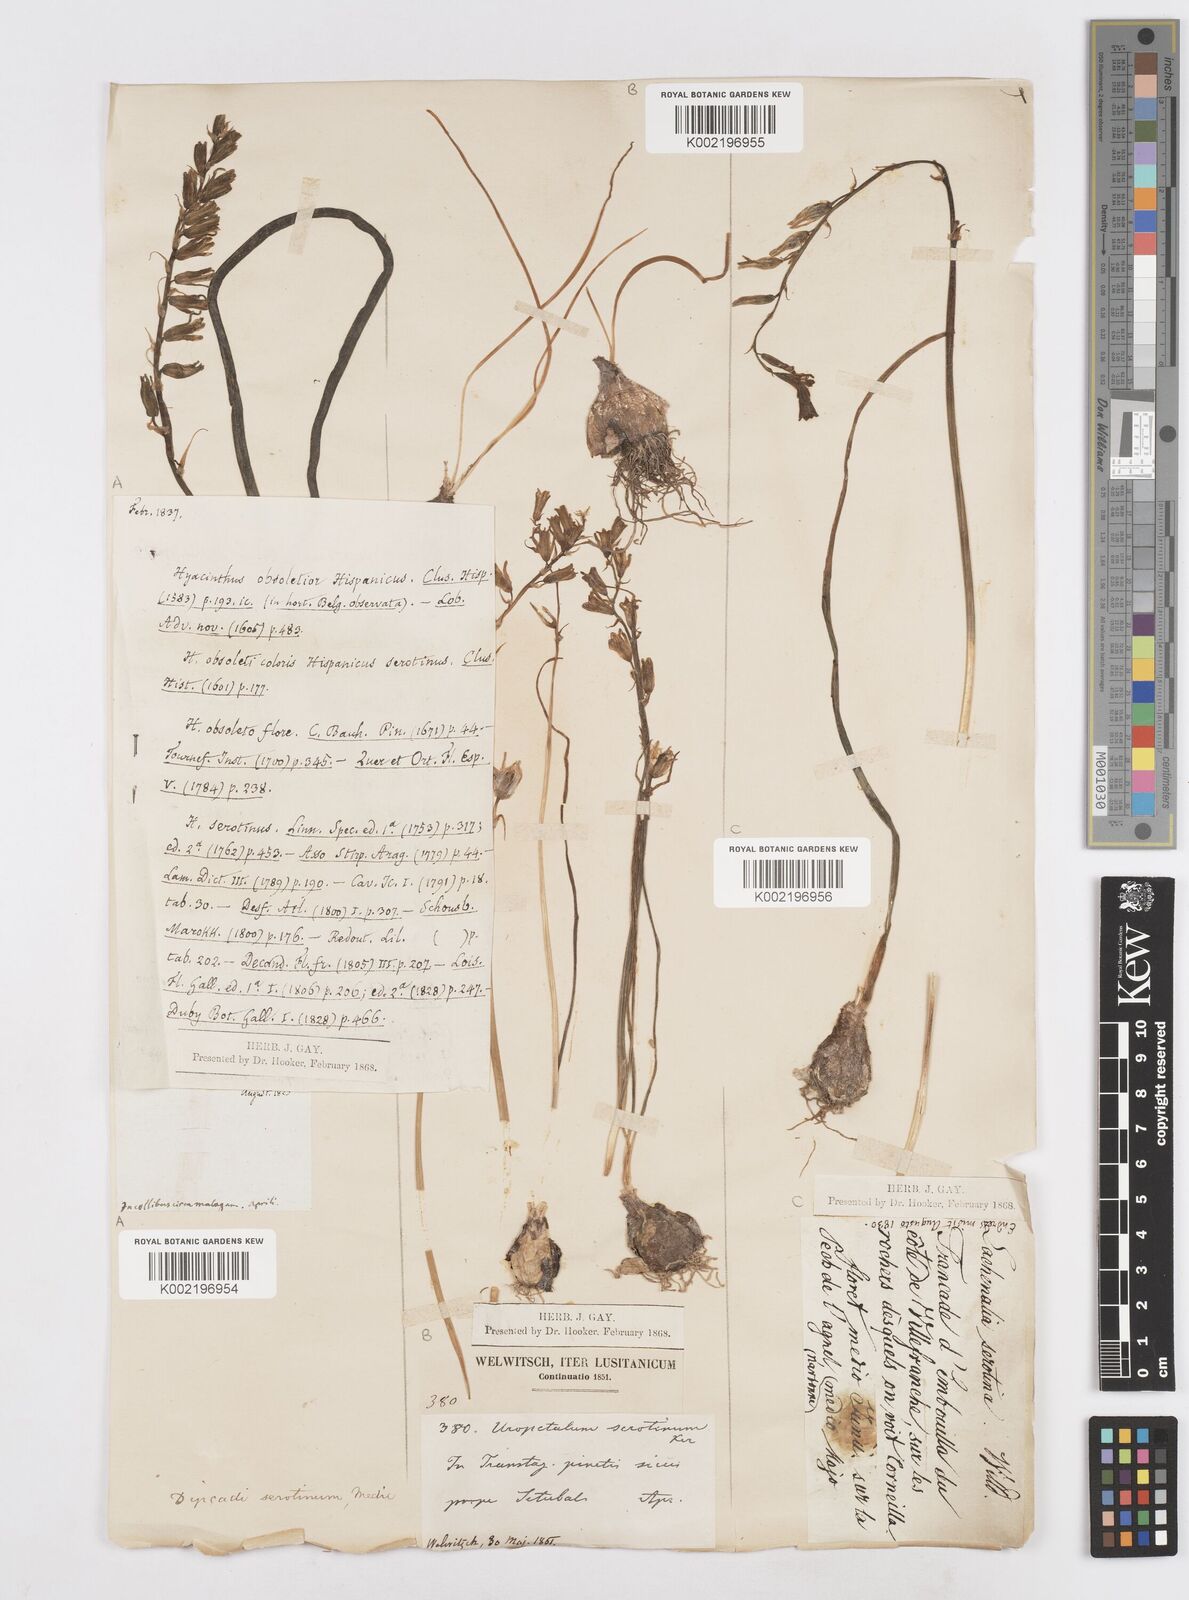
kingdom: Plantae
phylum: Tracheophyta
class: Liliopsida
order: Asparagales
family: Asparagaceae
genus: Dipcadi
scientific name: Dipcadi serotinum
